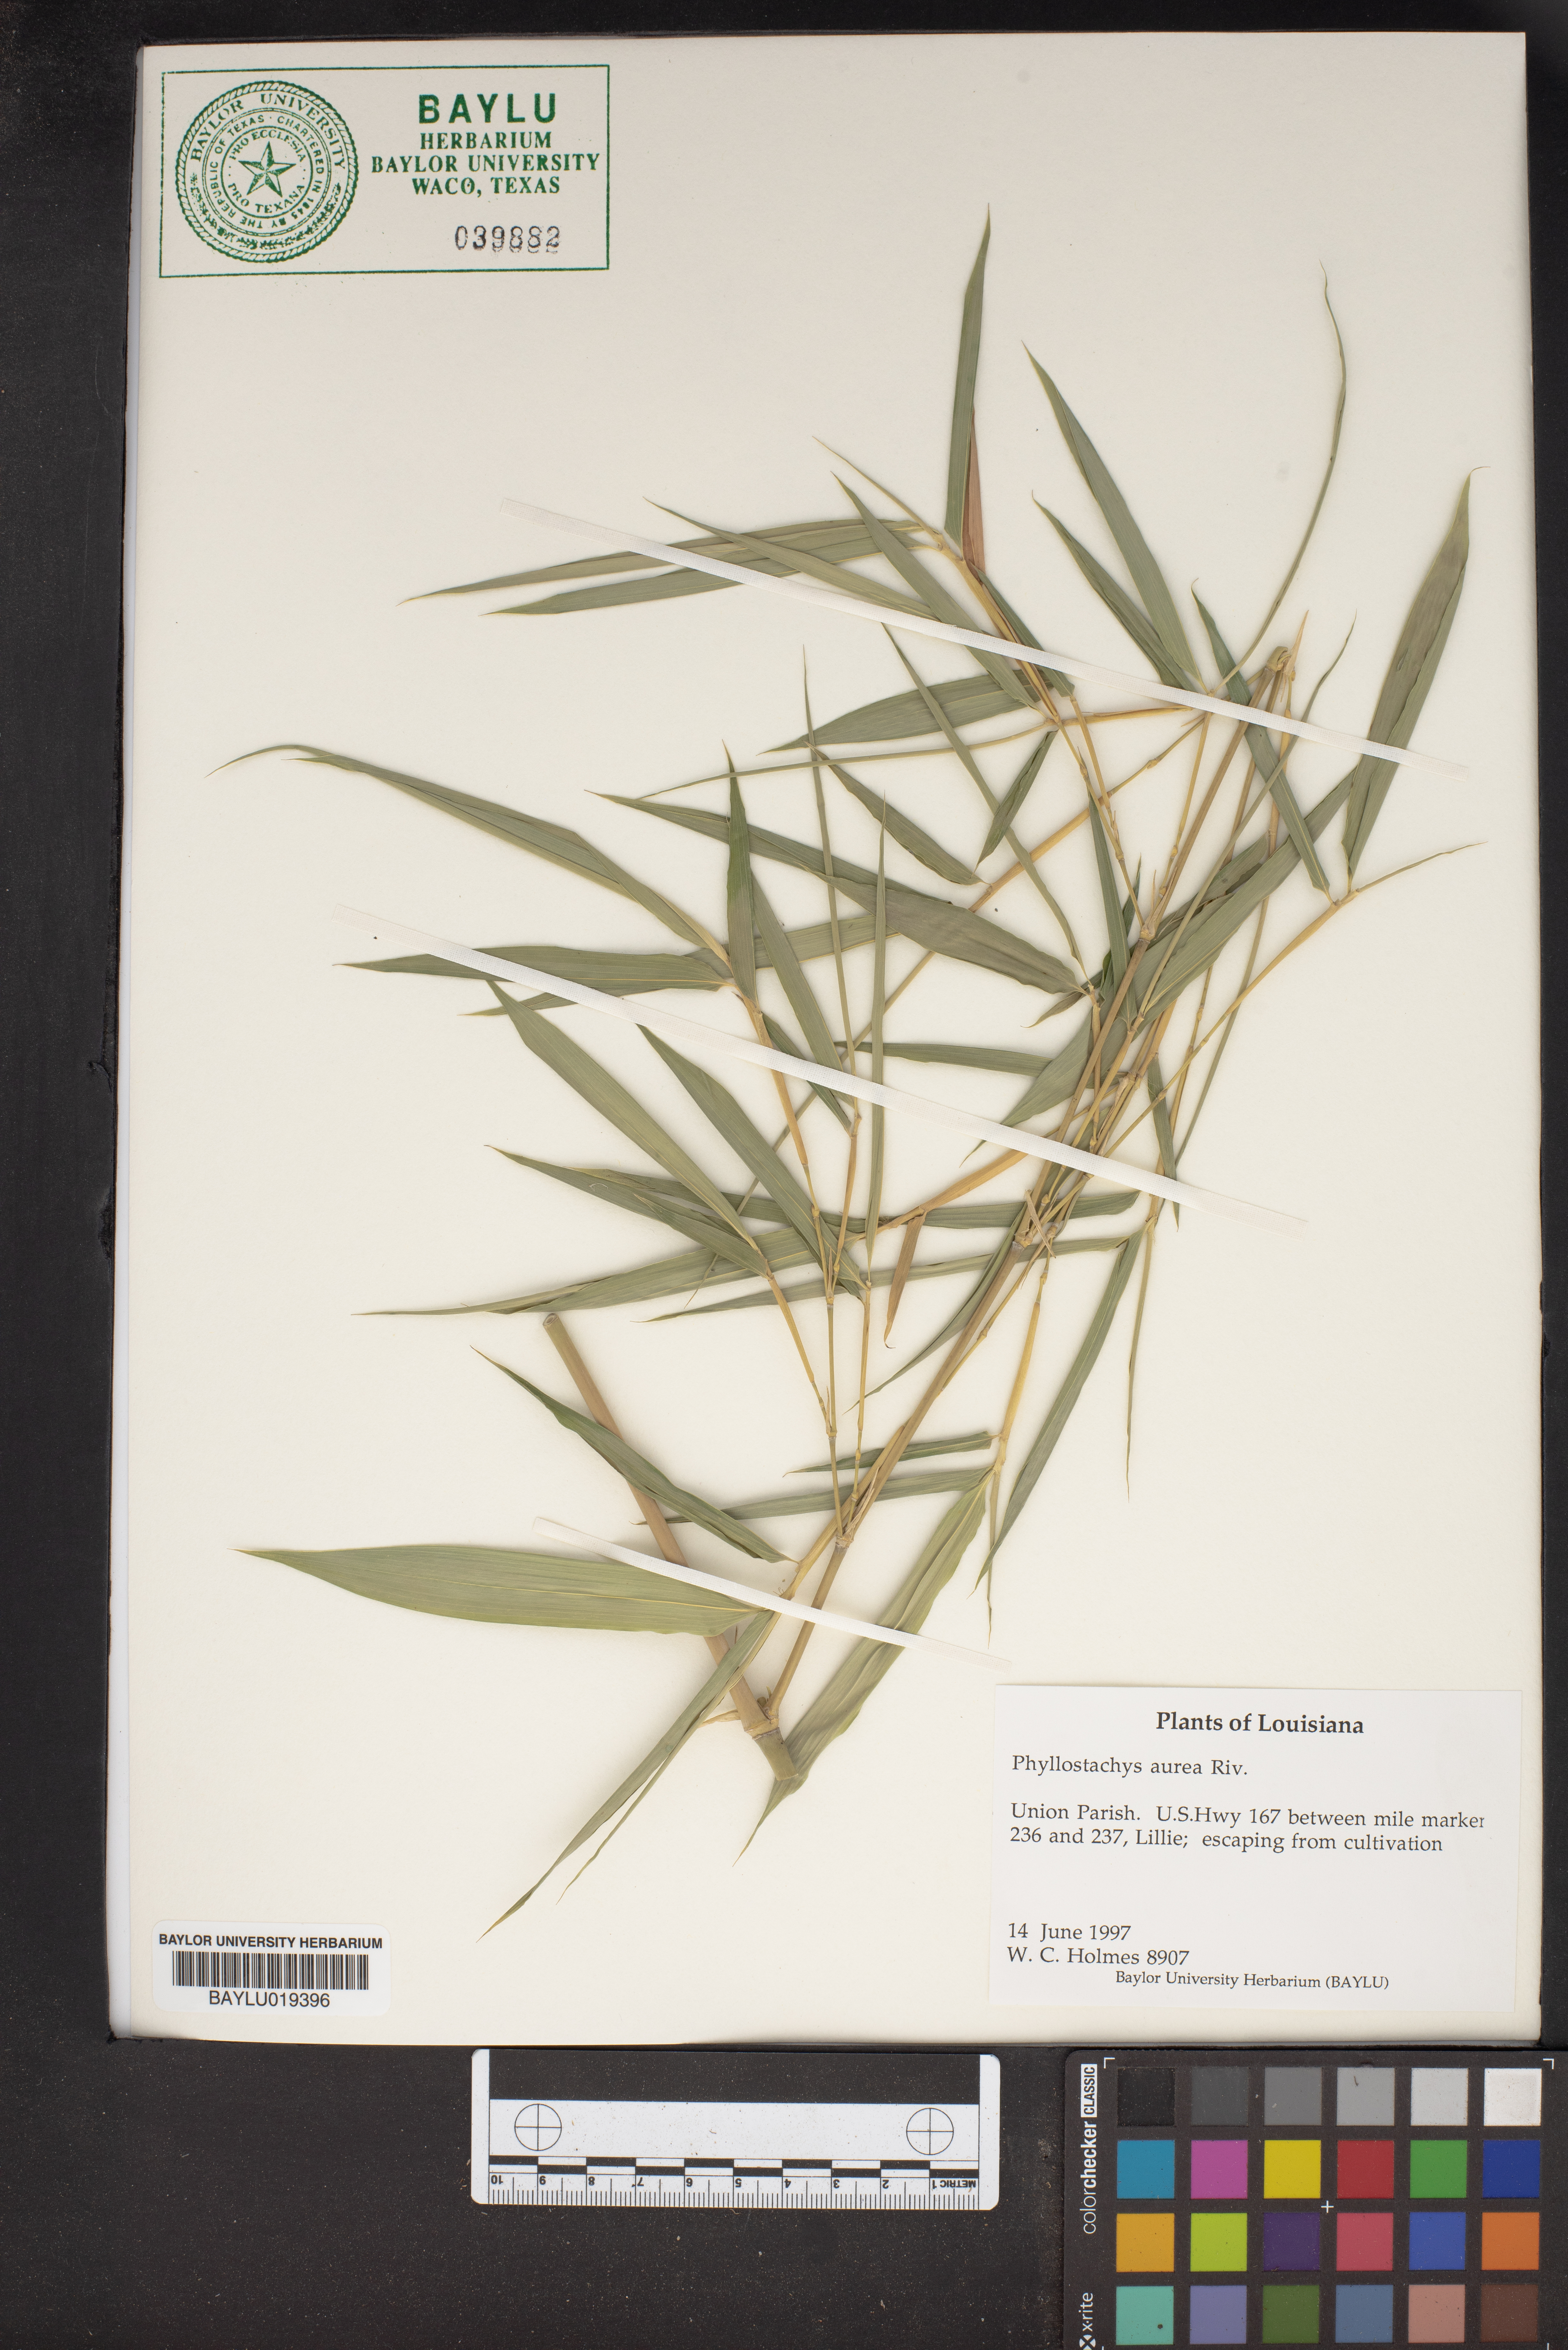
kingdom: Plantae
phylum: Tracheophyta
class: Liliopsida
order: Poales
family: Poaceae
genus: Phyllostachys
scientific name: Phyllostachys aurea
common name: Golden bamboo
